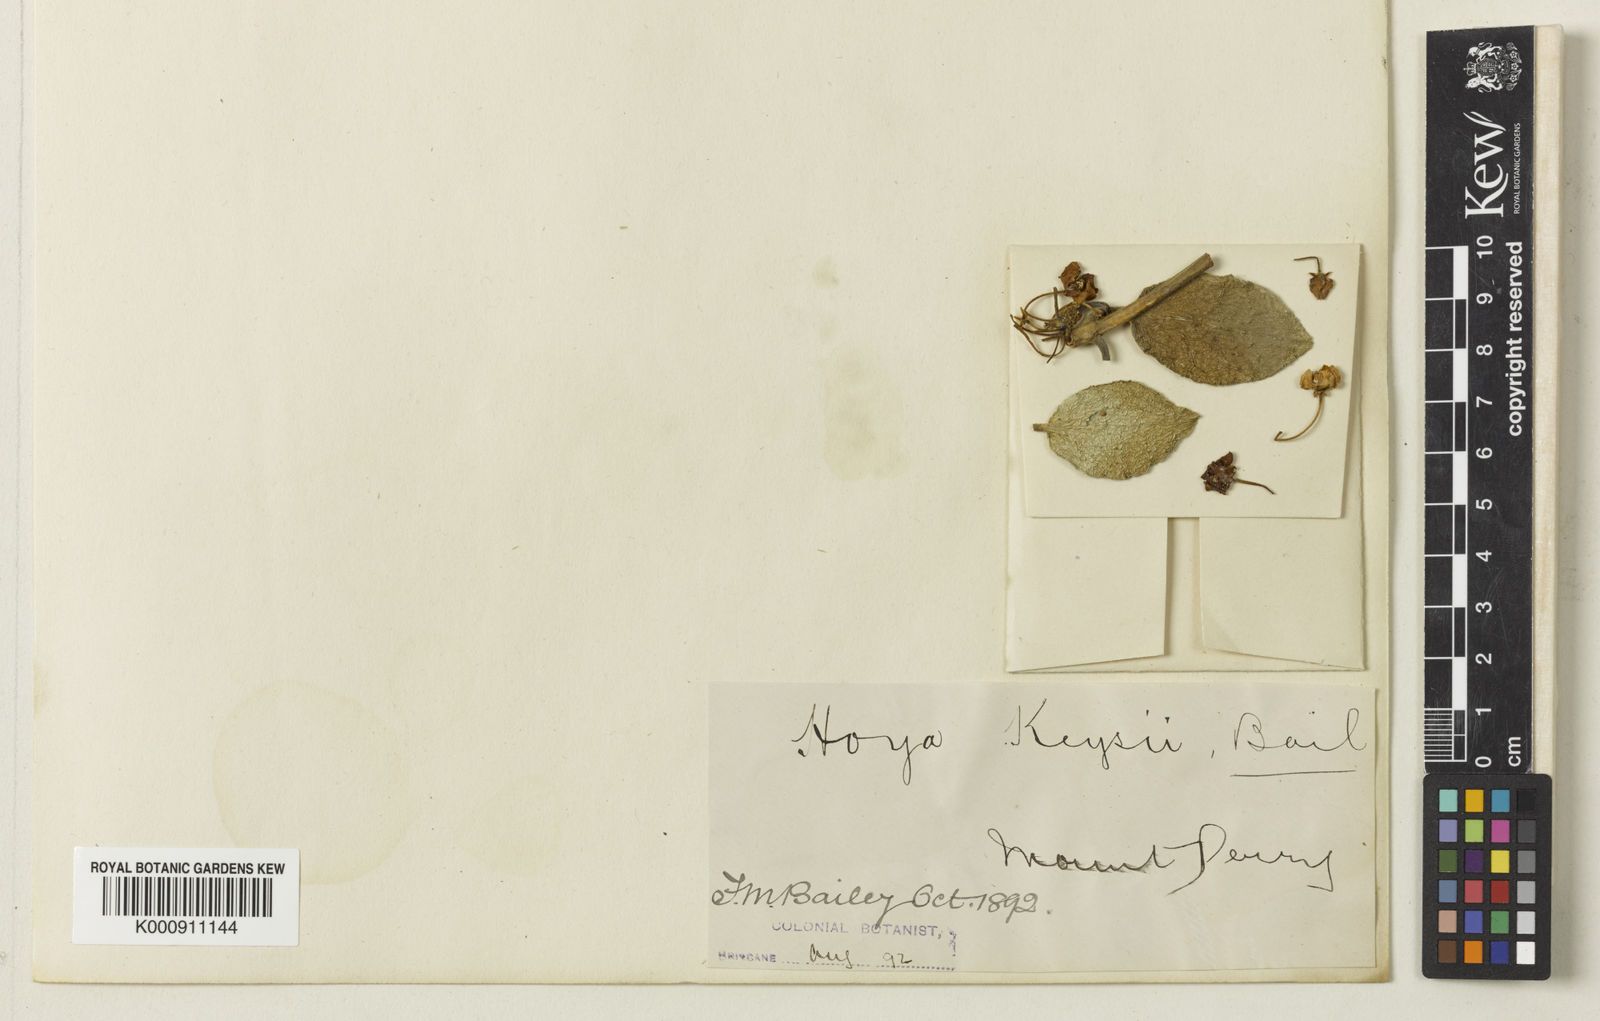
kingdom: Plantae
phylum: Tracheophyta
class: Magnoliopsida
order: Gentianales
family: Apocynaceae
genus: Hoya
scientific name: Hoya australis
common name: Wax flower
